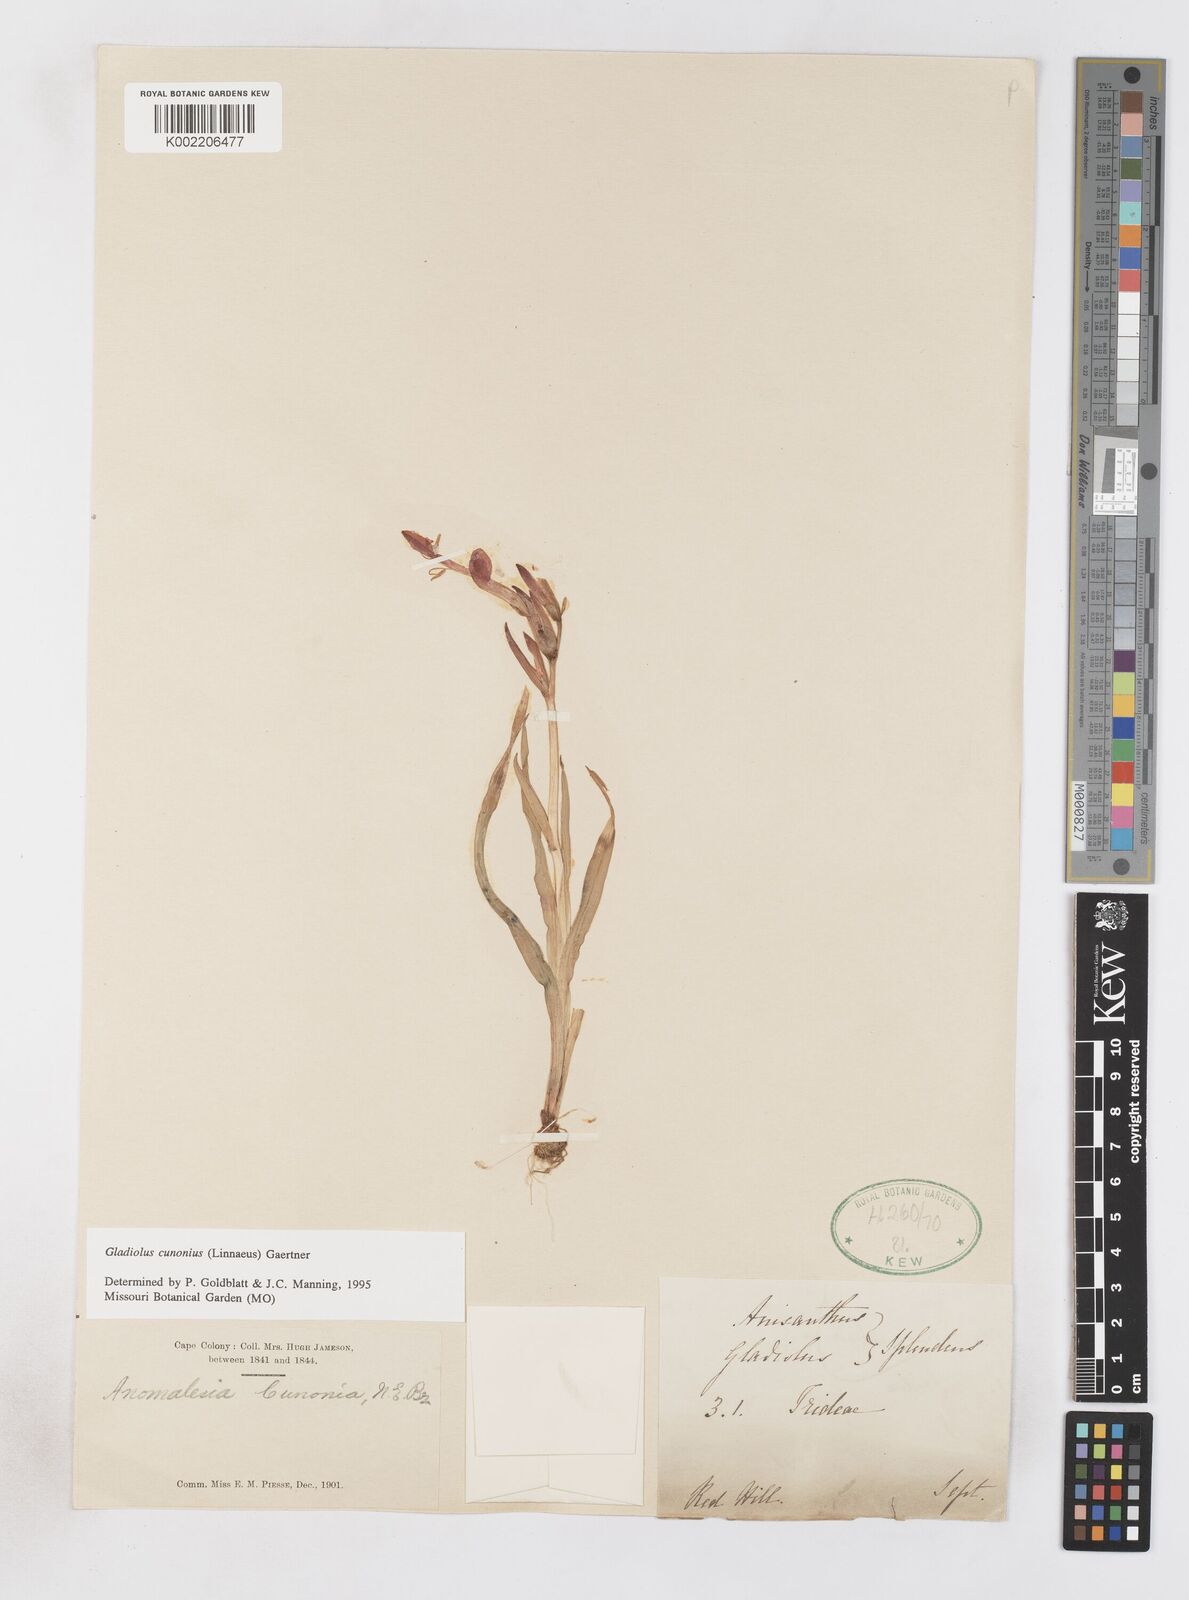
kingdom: Plantae
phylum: Tracheophyta
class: Liliopsida
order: Asparagales
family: Iridaceae
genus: Gladiolus
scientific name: Gladiolus cunonius
